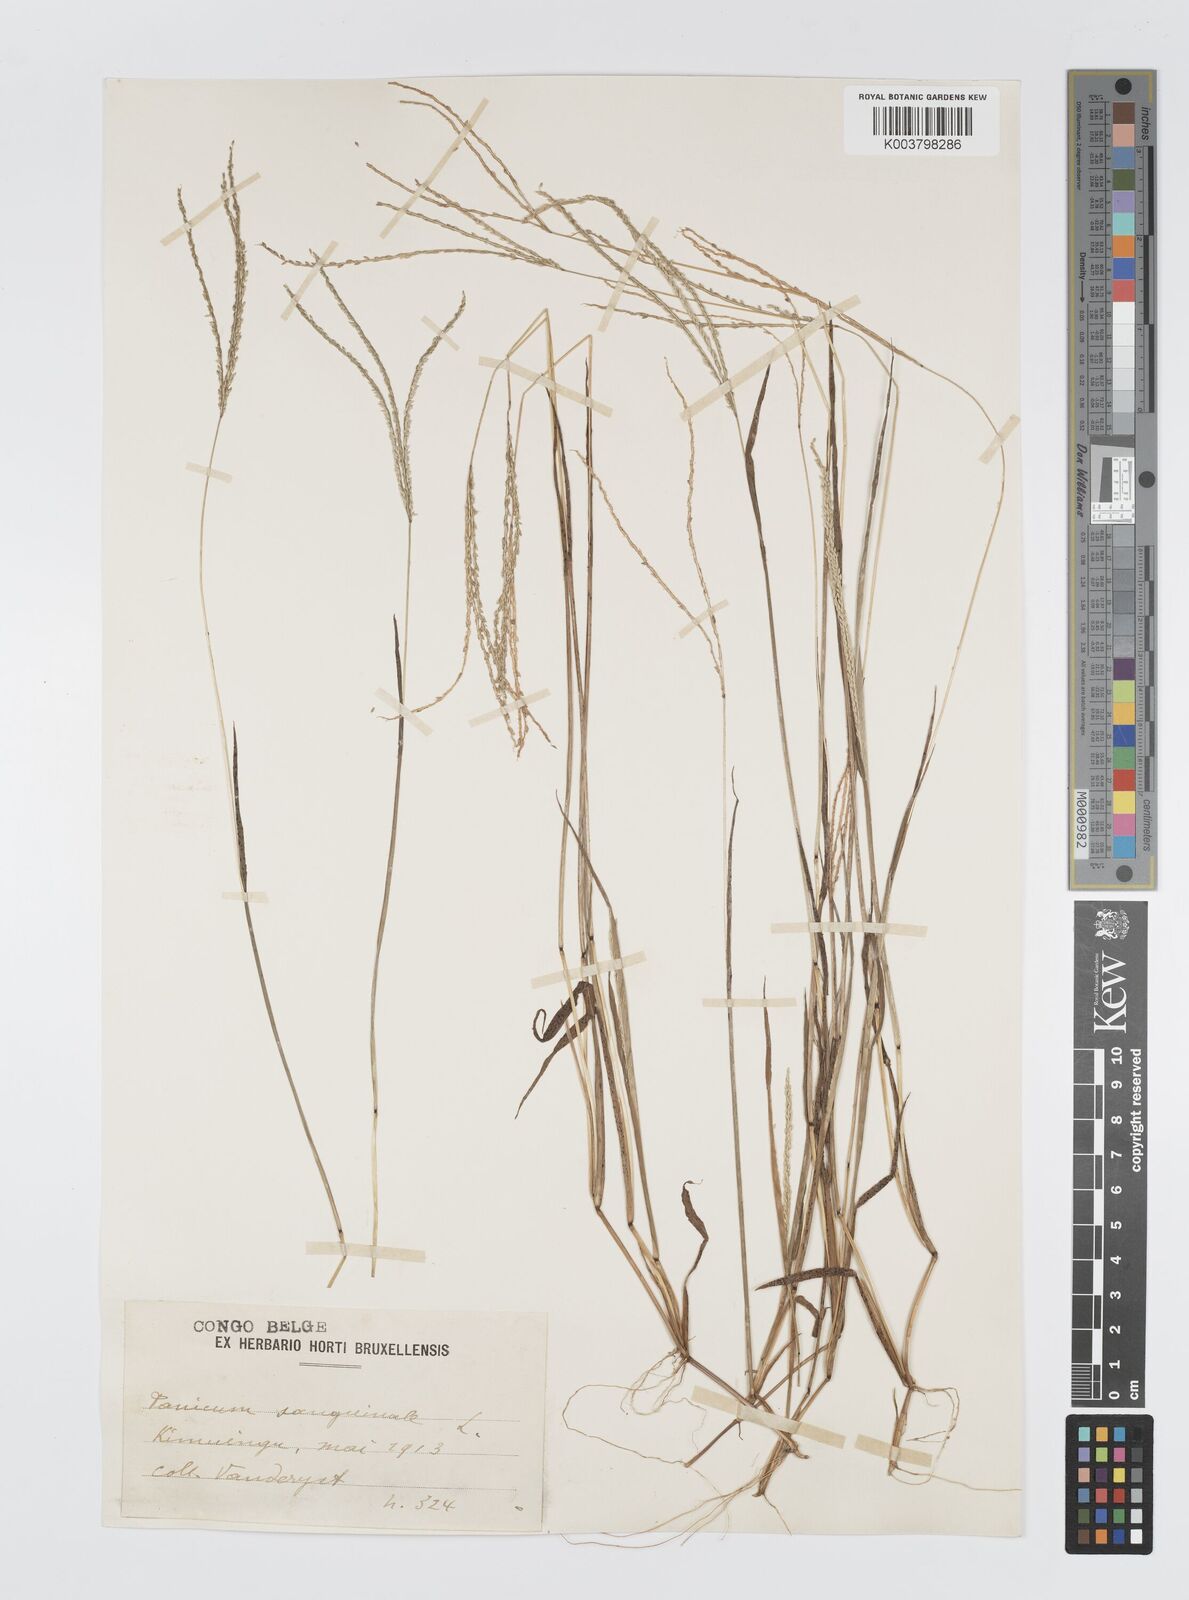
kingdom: Plantae
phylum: Tracheophyta
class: Liliopsida
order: Poales
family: Poaceae
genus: Digitaria
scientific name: Digitaria longiflora
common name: Wire crabgrass
